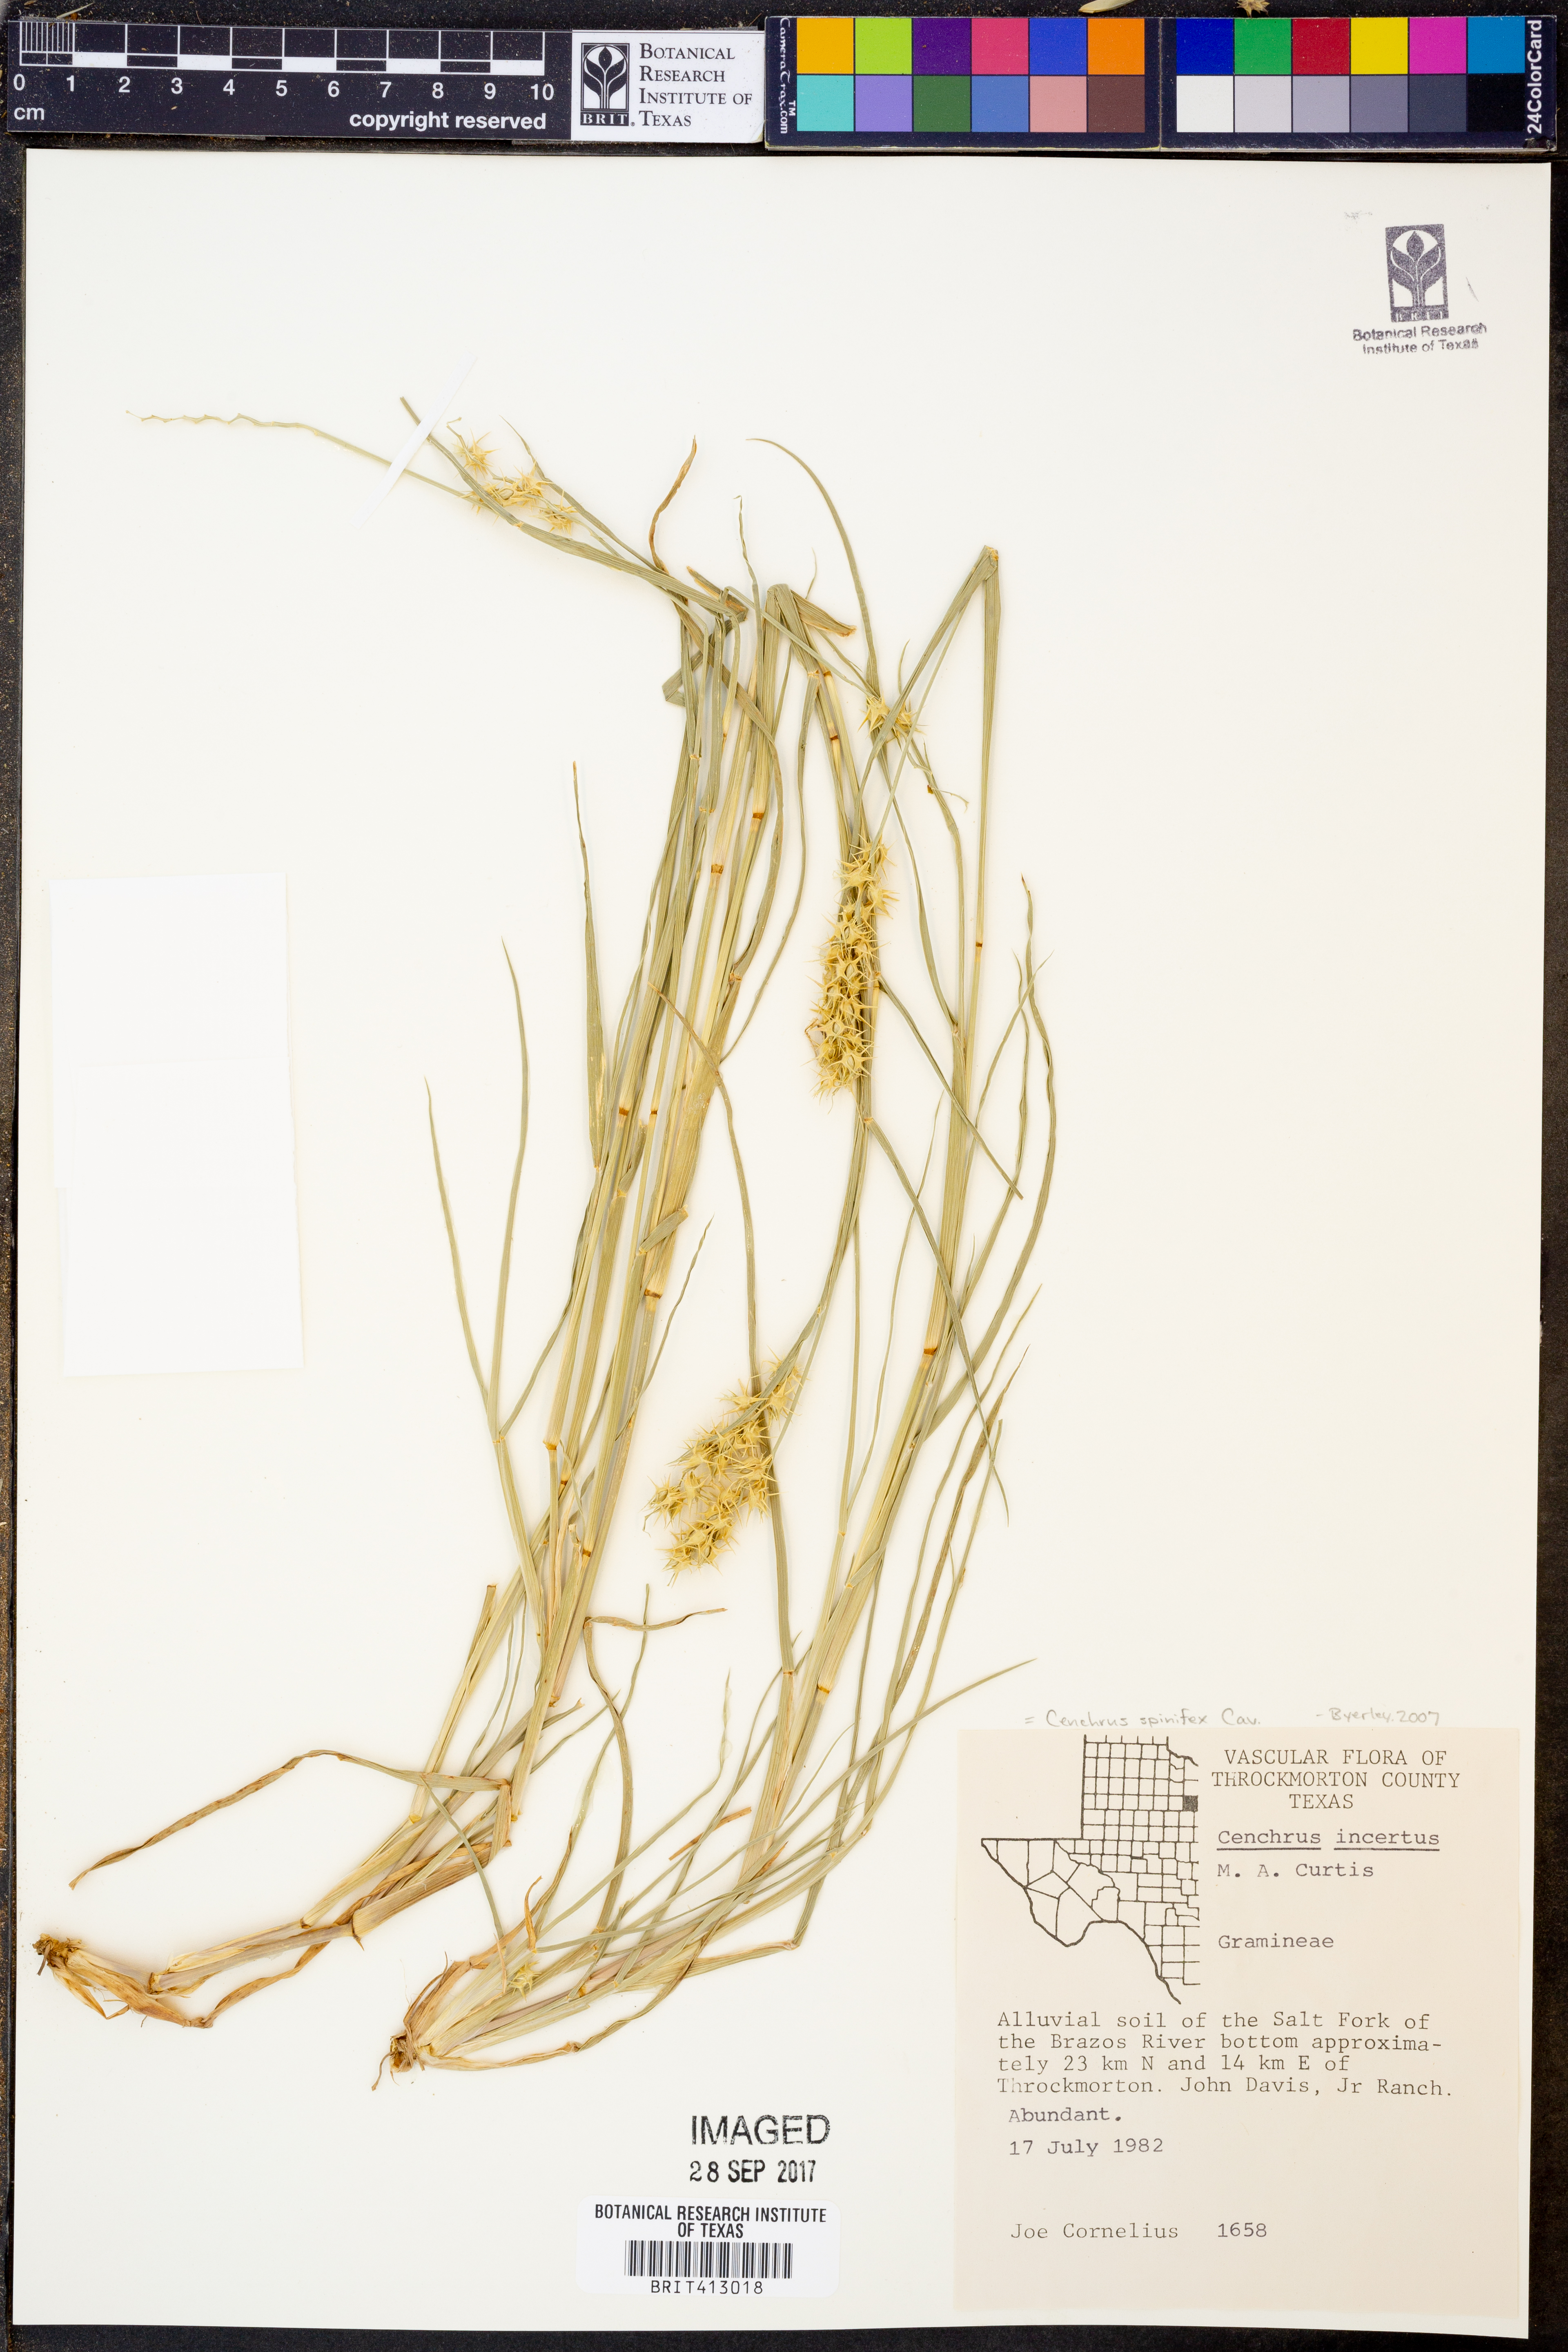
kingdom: Plantae
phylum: Tracheophyta
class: Liliopsida
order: Poales
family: Poaceae
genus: Cenchrus
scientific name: Cenchrus spinifex
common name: Coast sandbur
